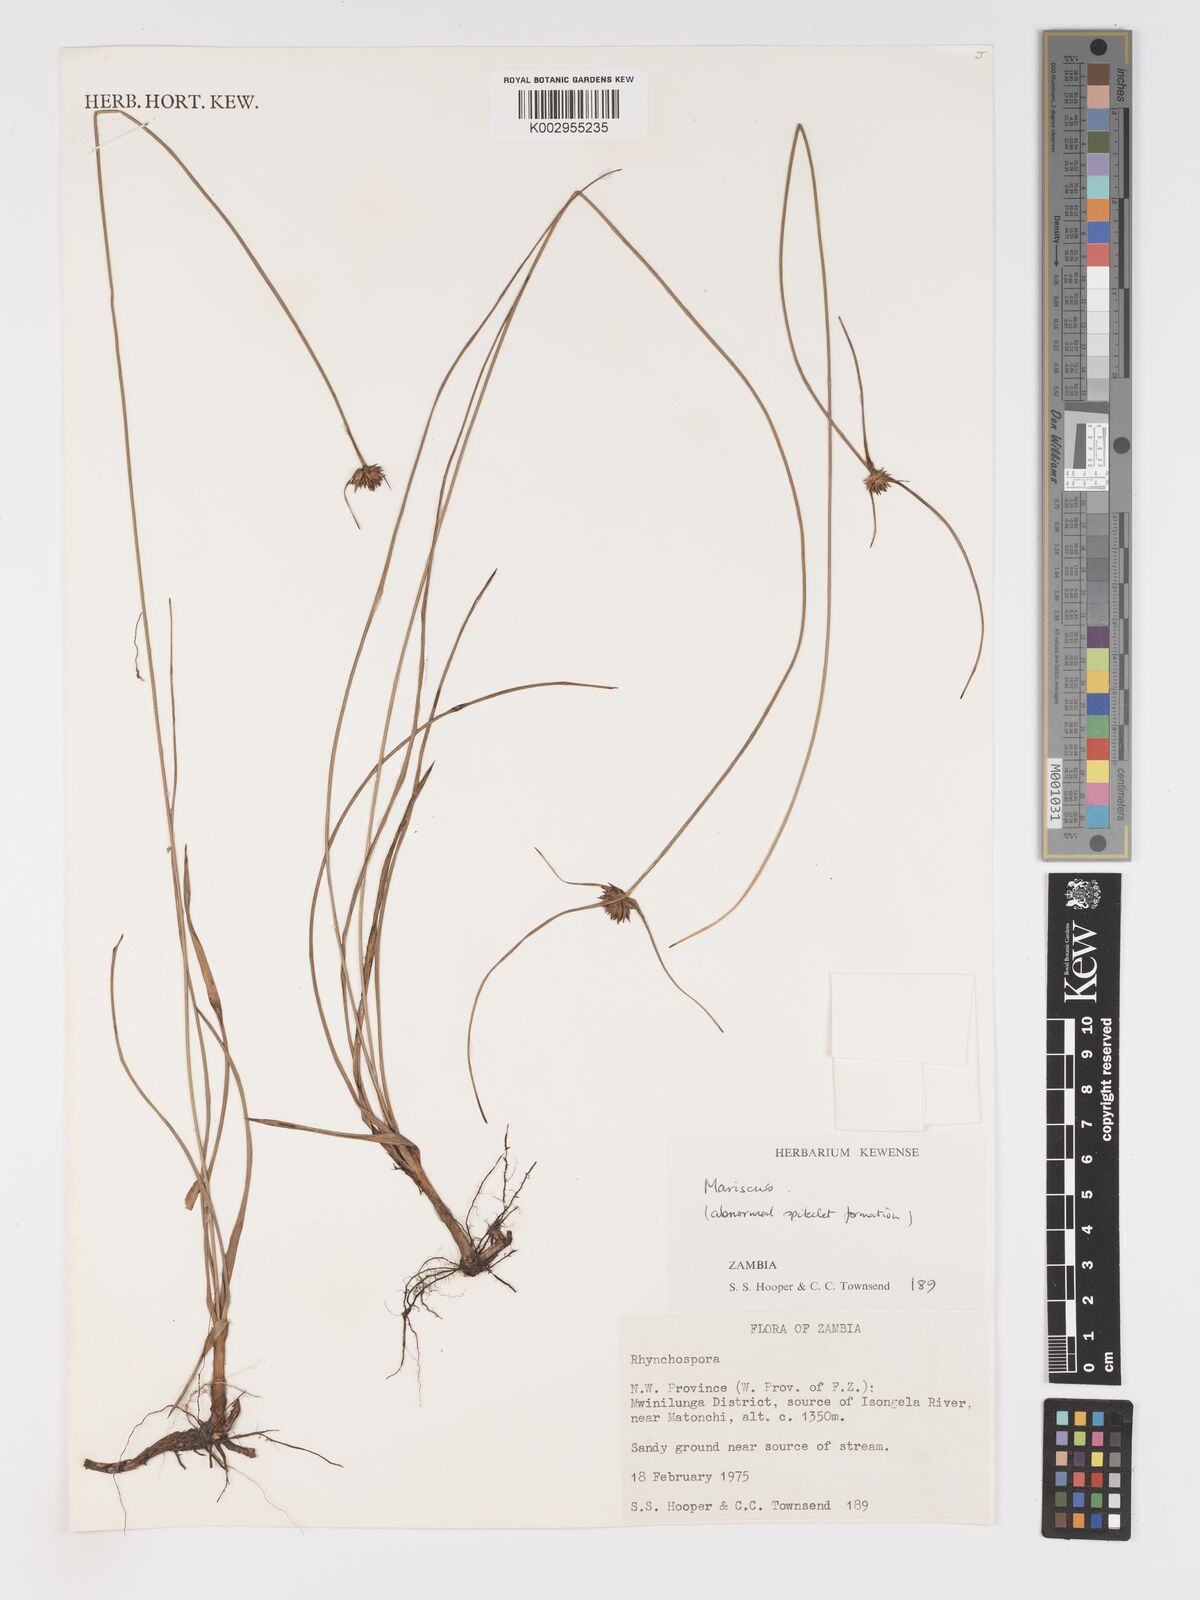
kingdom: Plantae
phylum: Tracheophyta
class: Liliopsida
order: Poales
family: Cyperaceae
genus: Cyperus
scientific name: Cyperus
